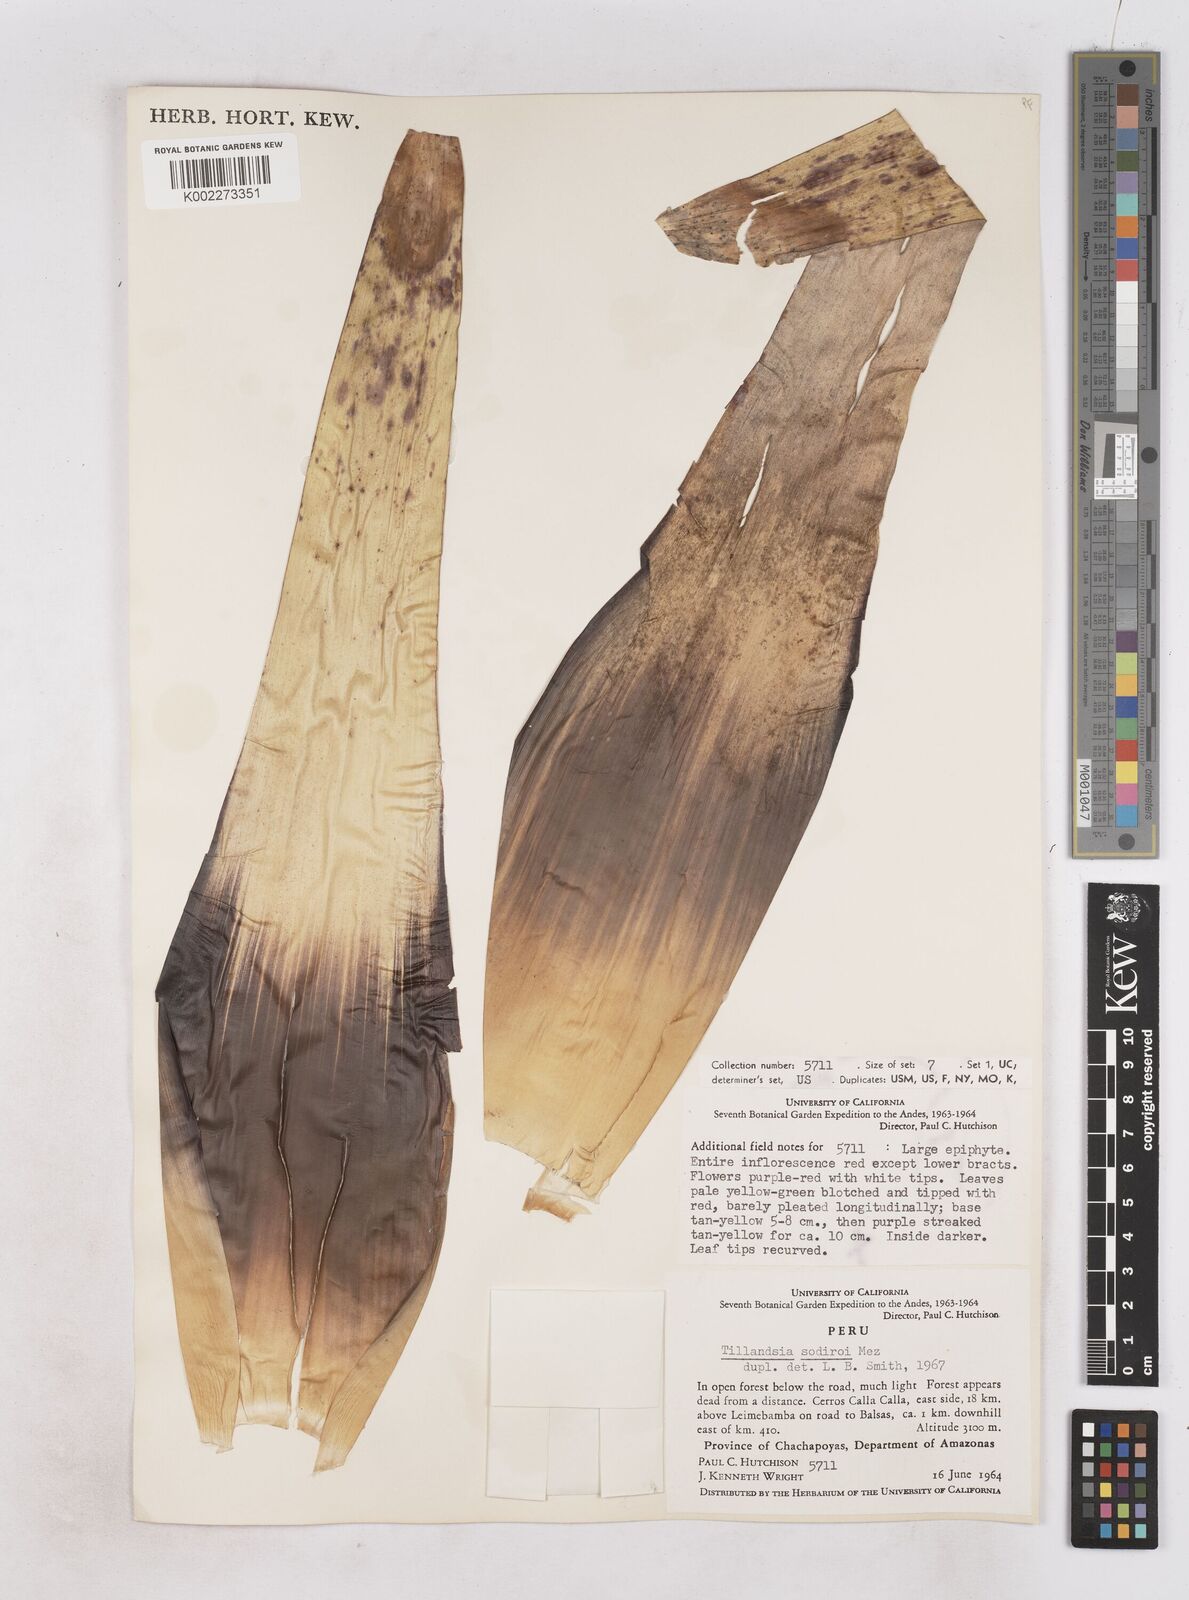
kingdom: Plantae
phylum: Tracheophyta
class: Liliopsida
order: Poales
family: Bromeliaceae
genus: Tillandsia
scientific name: Tillandsia sodiroi
